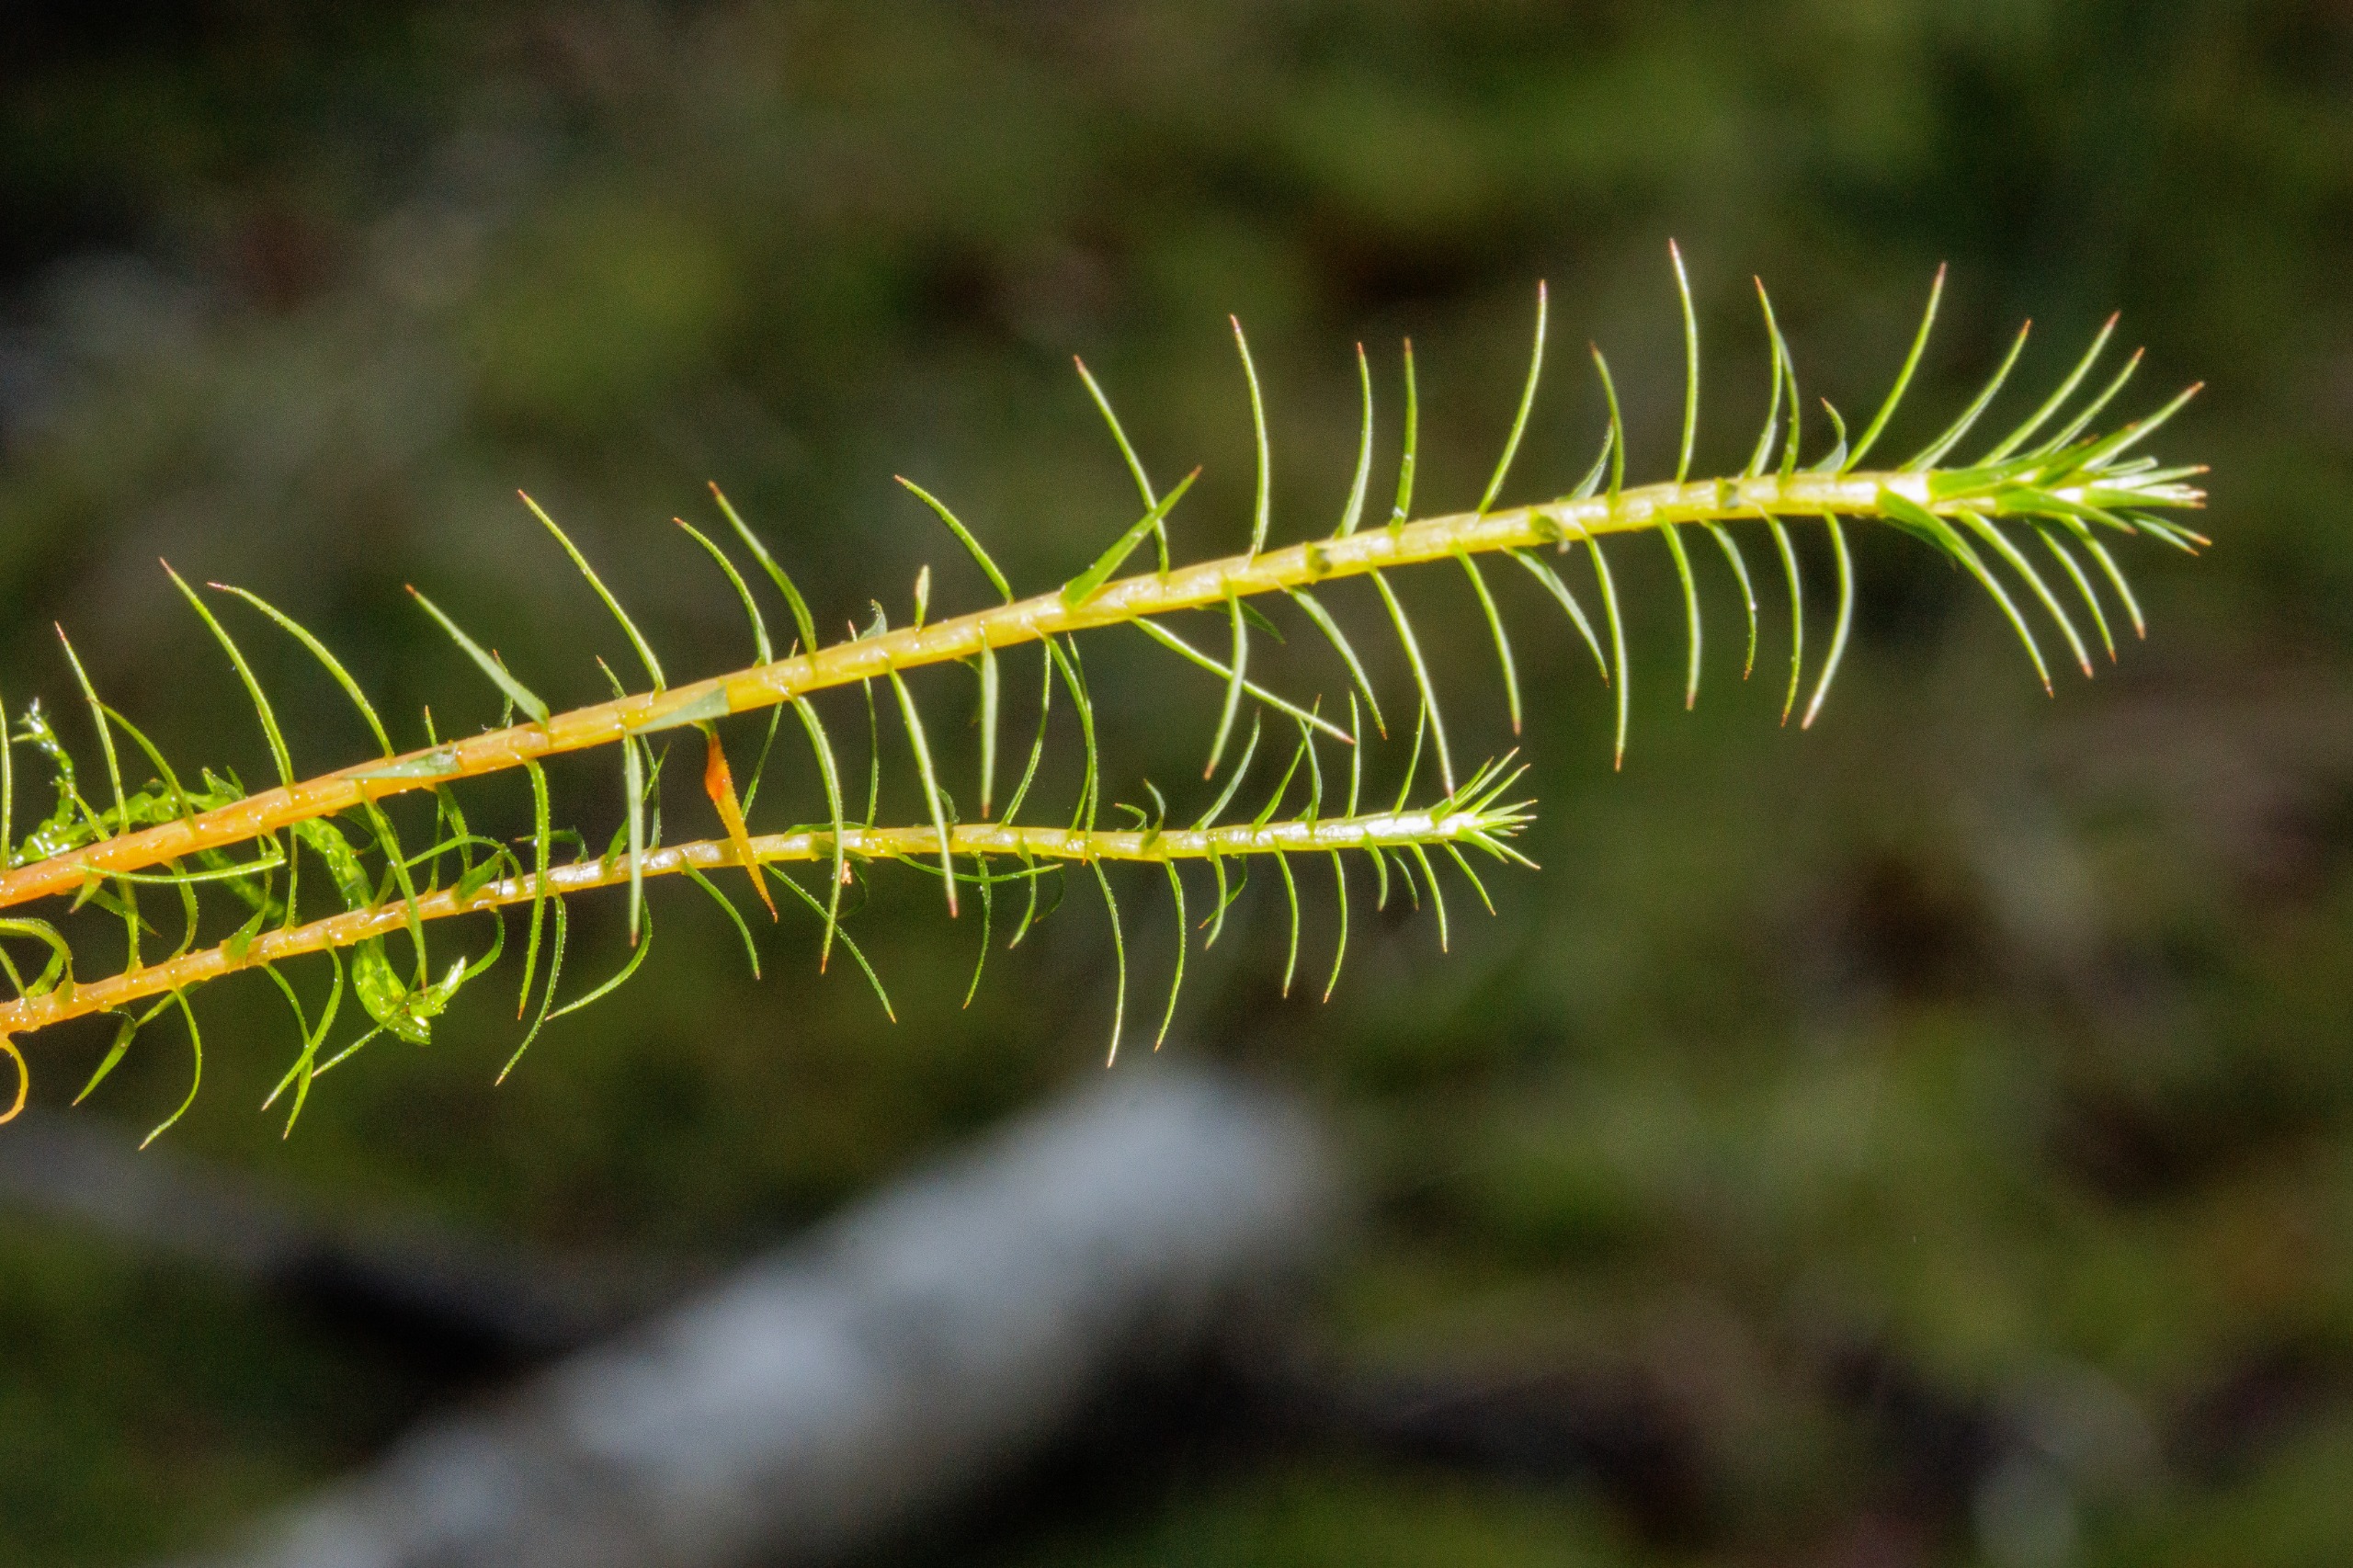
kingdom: Plantae
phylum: Bryophyta
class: Polytrichopsida
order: Polytrichales
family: Polytrichaceae
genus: Polytrichum
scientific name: Polytrichum commune
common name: Almindelig jomfruhår
